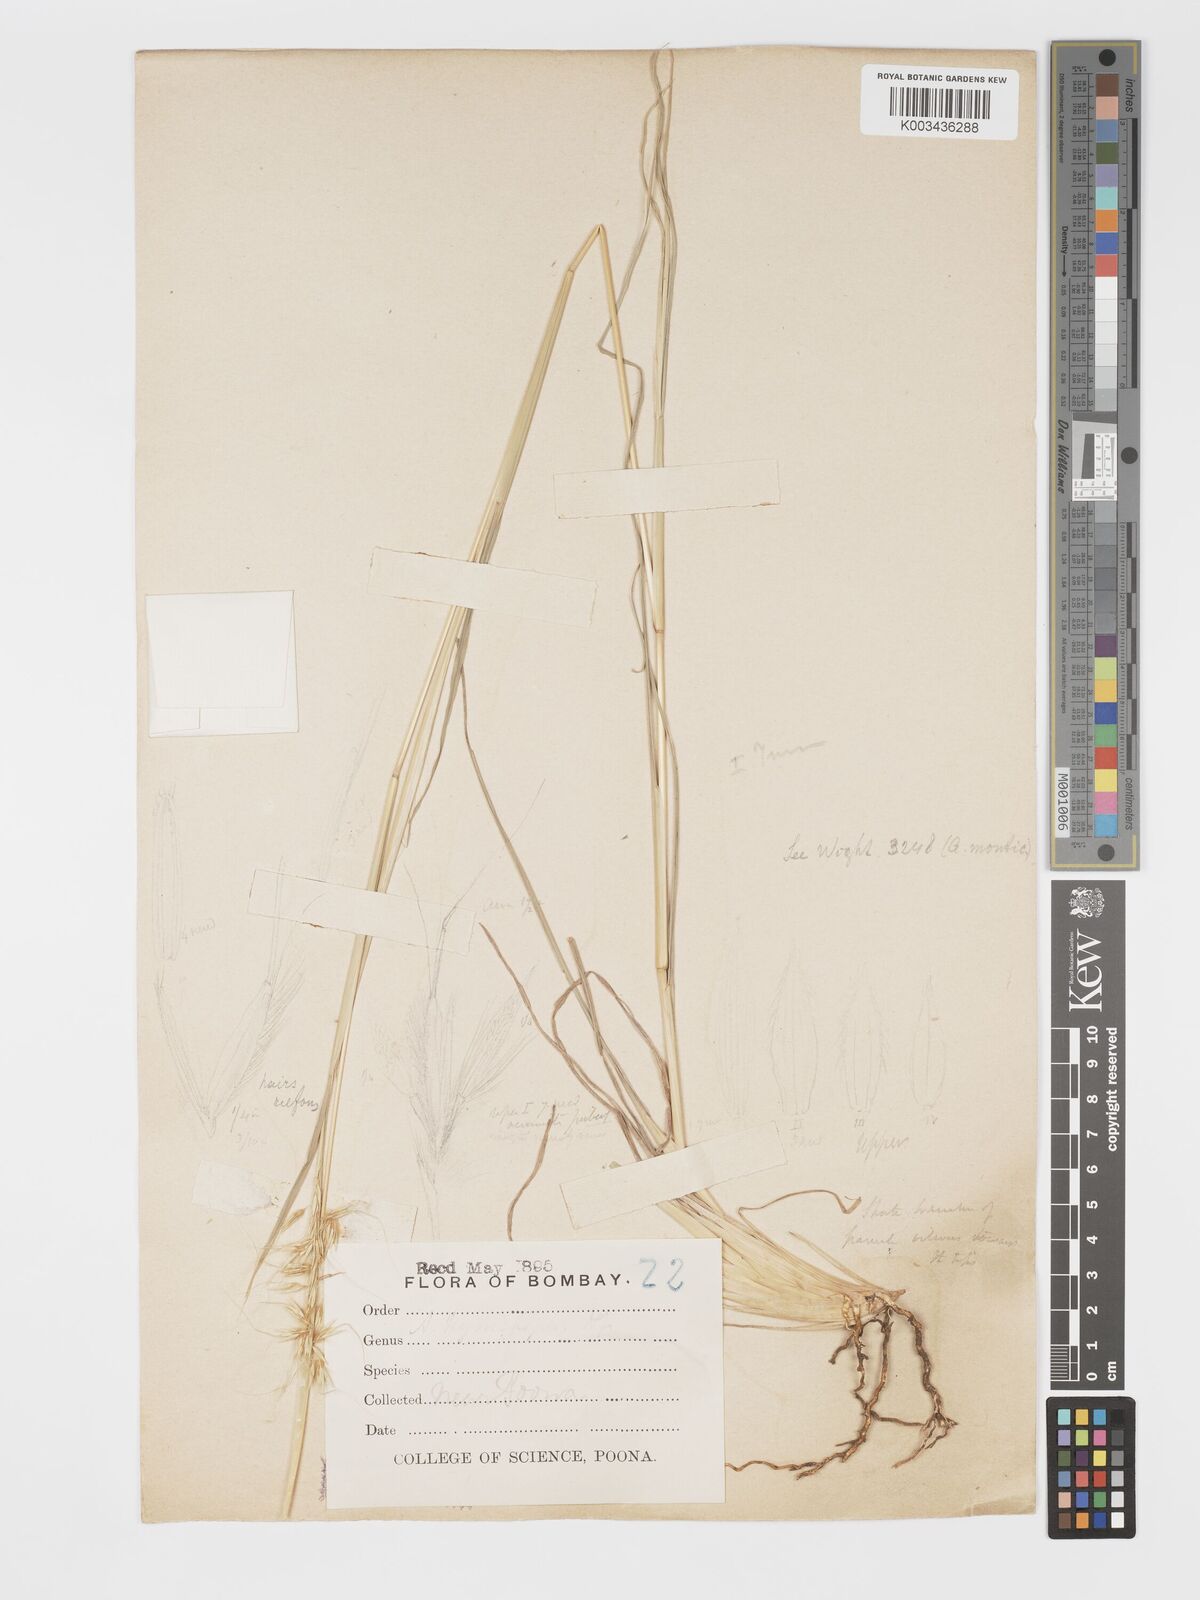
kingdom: Plantae
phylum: Tracheophyta
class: Liliopsida
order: Poales
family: Poaceae
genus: Chrysopogon
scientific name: Chrysopogon fulvus
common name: Red false beardgrass
